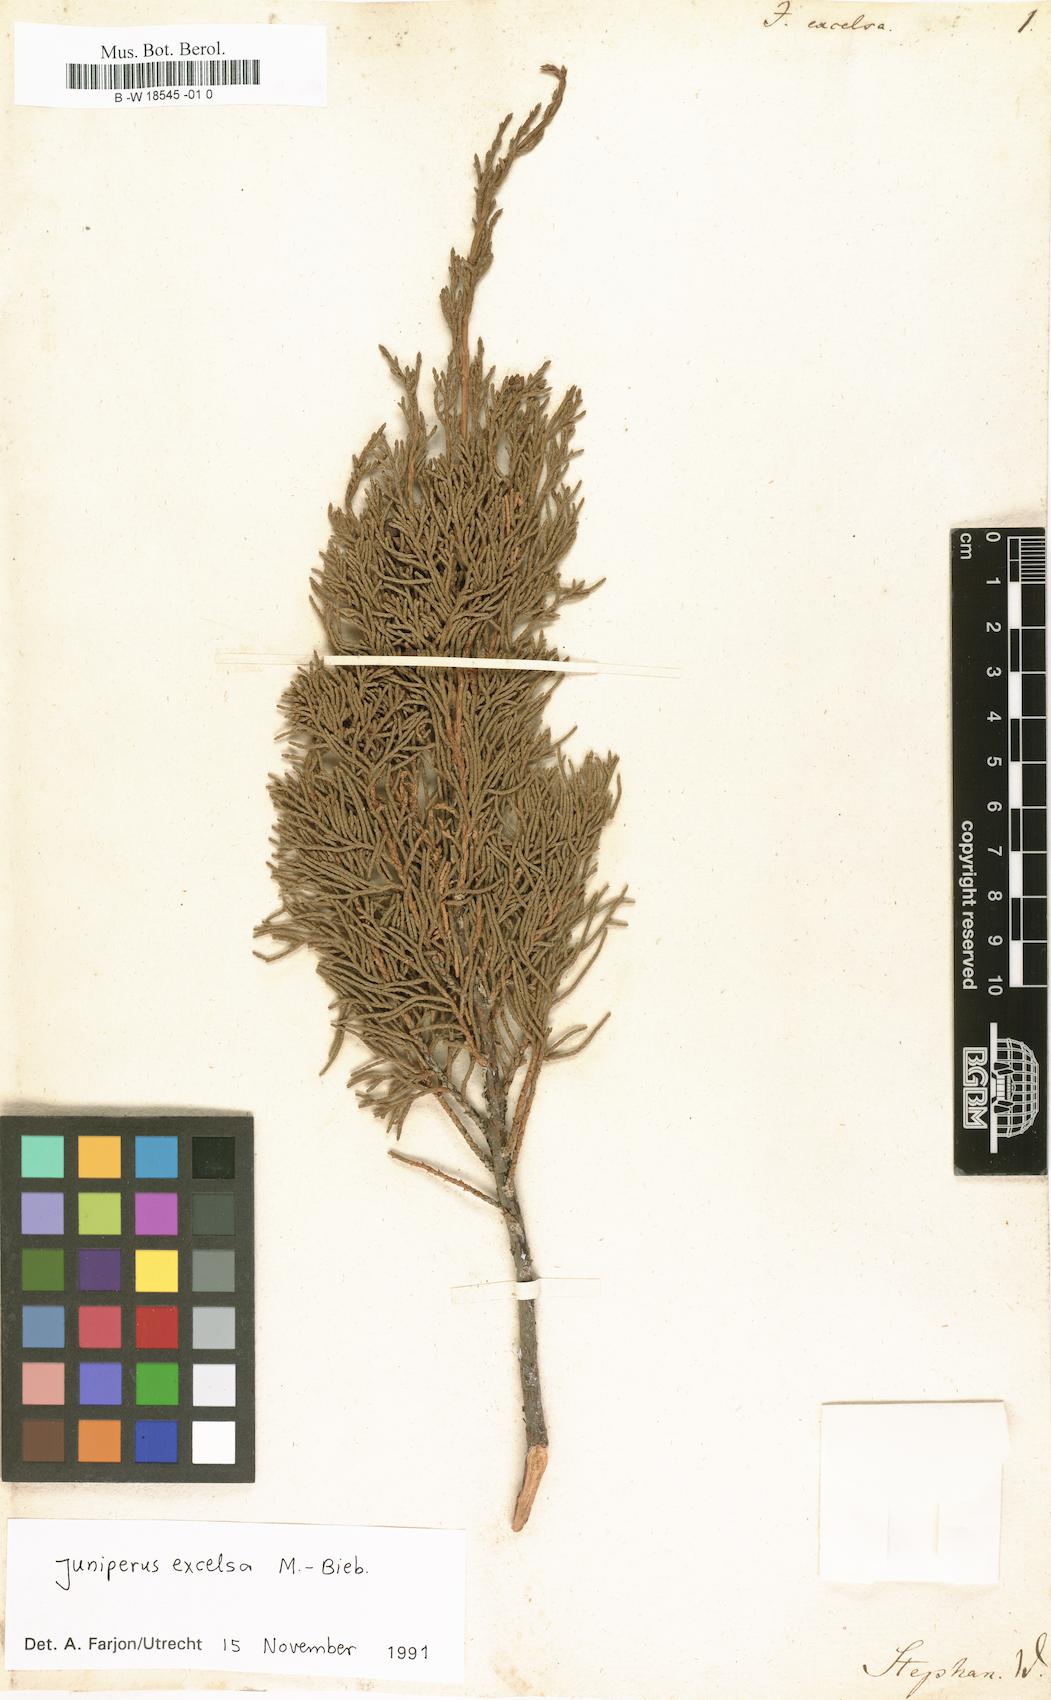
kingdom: Plantae
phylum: Tracheophyta
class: Pinopsida
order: Pinales
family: Cupressaceae
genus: Juniperus
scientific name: Juniperus excelsa
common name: Crimean juniper
